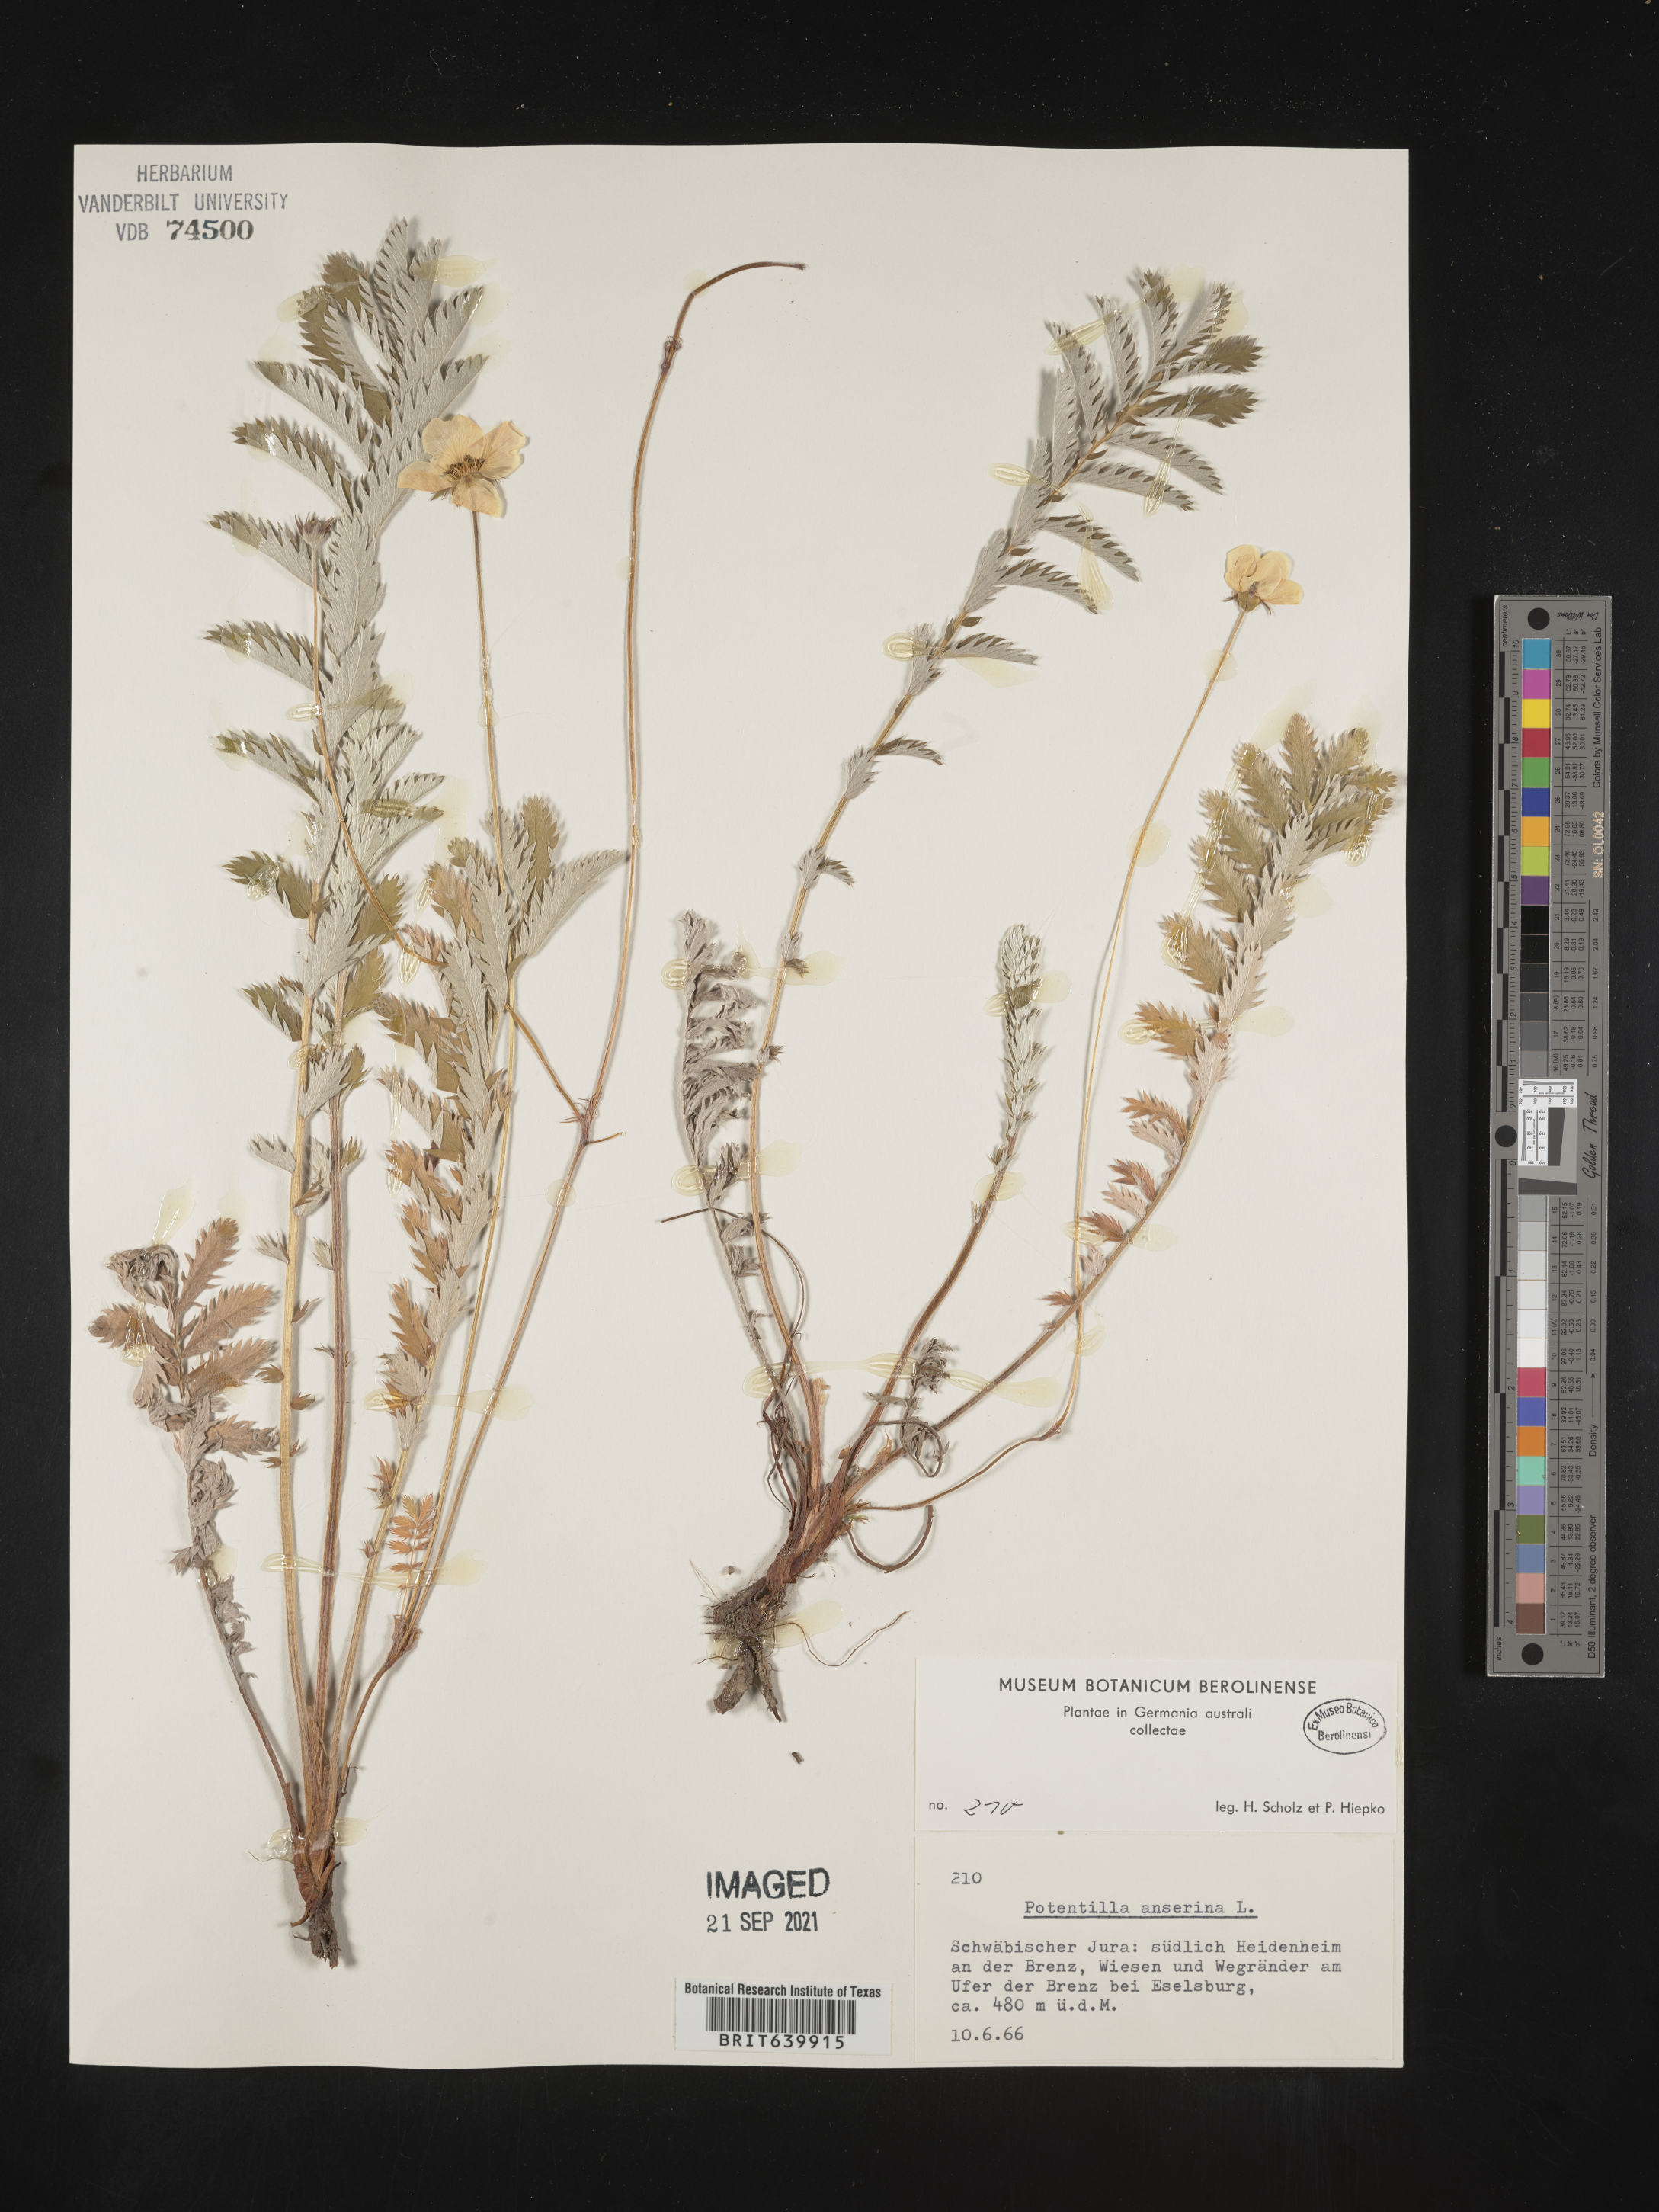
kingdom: Plantae
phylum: Tracheophyta
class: Magnoliopsida
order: Rosales
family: Rosaceae
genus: Potentilla
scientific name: Potentilla
